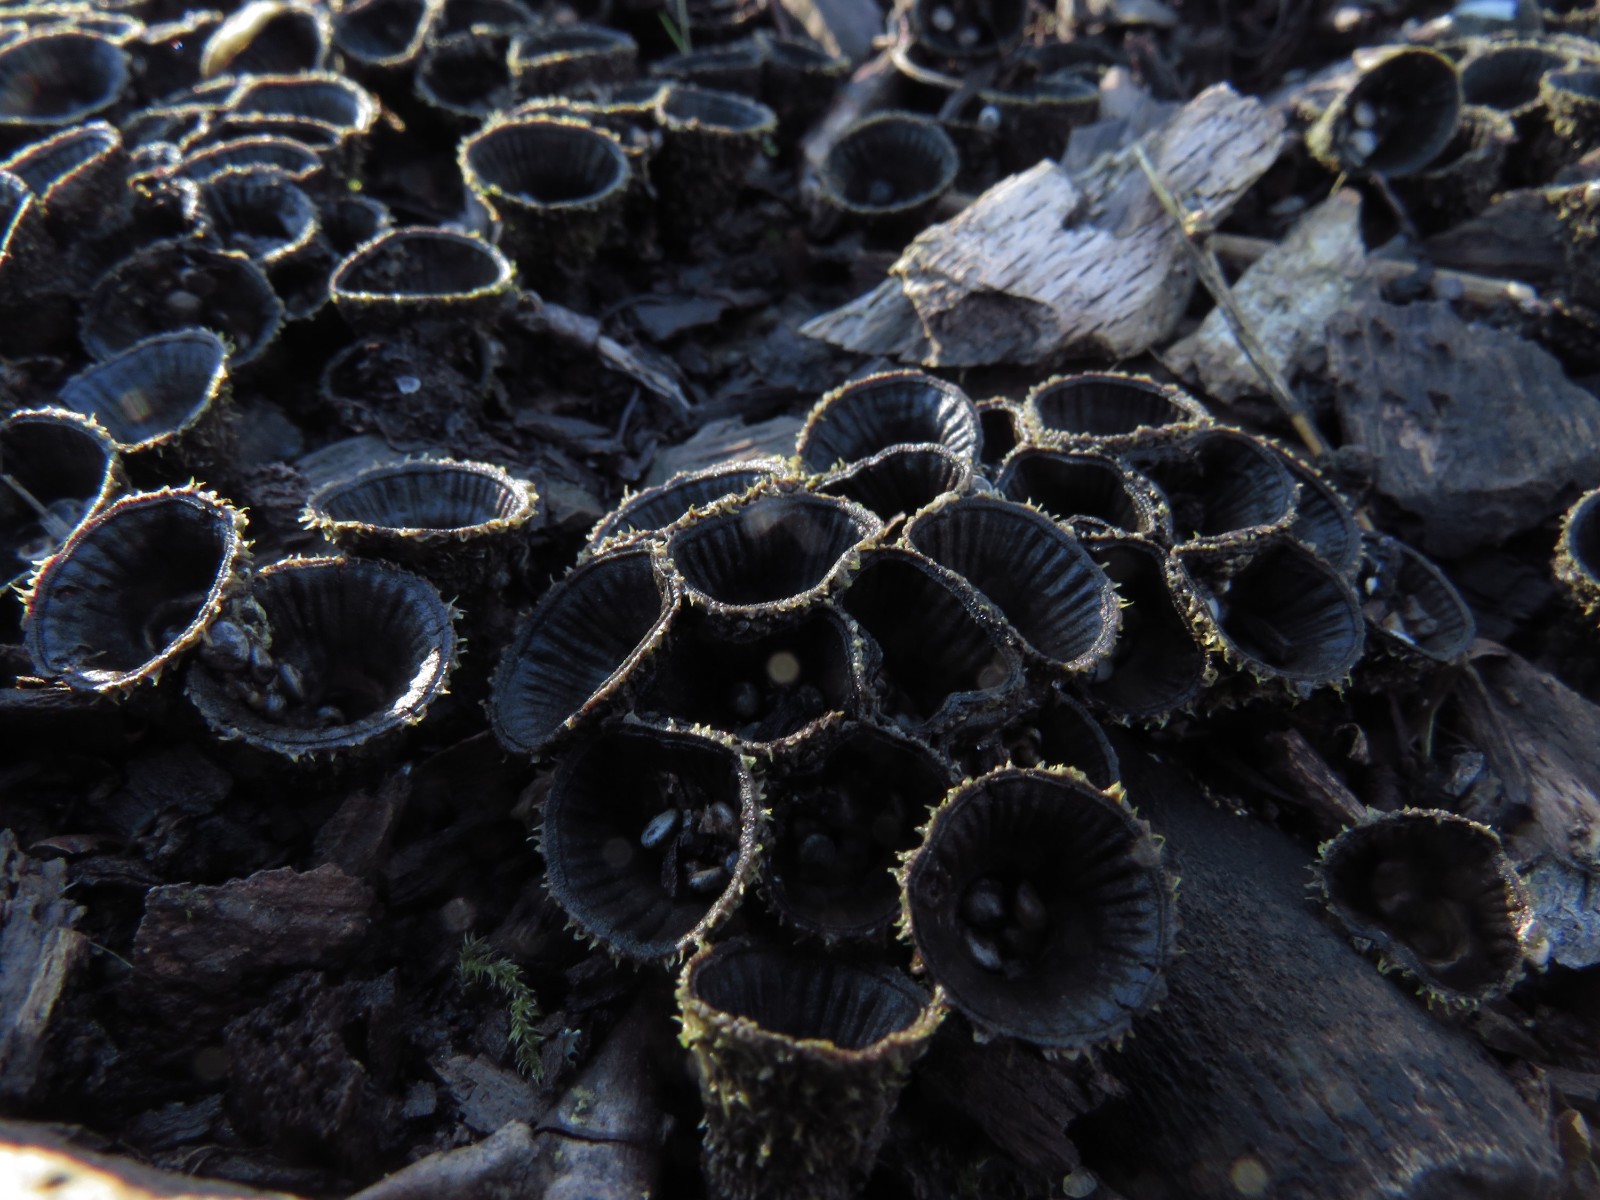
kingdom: Fungi
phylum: Basidiomycota
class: Agaricomycetes
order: Agaricales
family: Agaricaceae
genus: Cyathus
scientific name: Cyathus striatus
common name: stribet redesvamp
